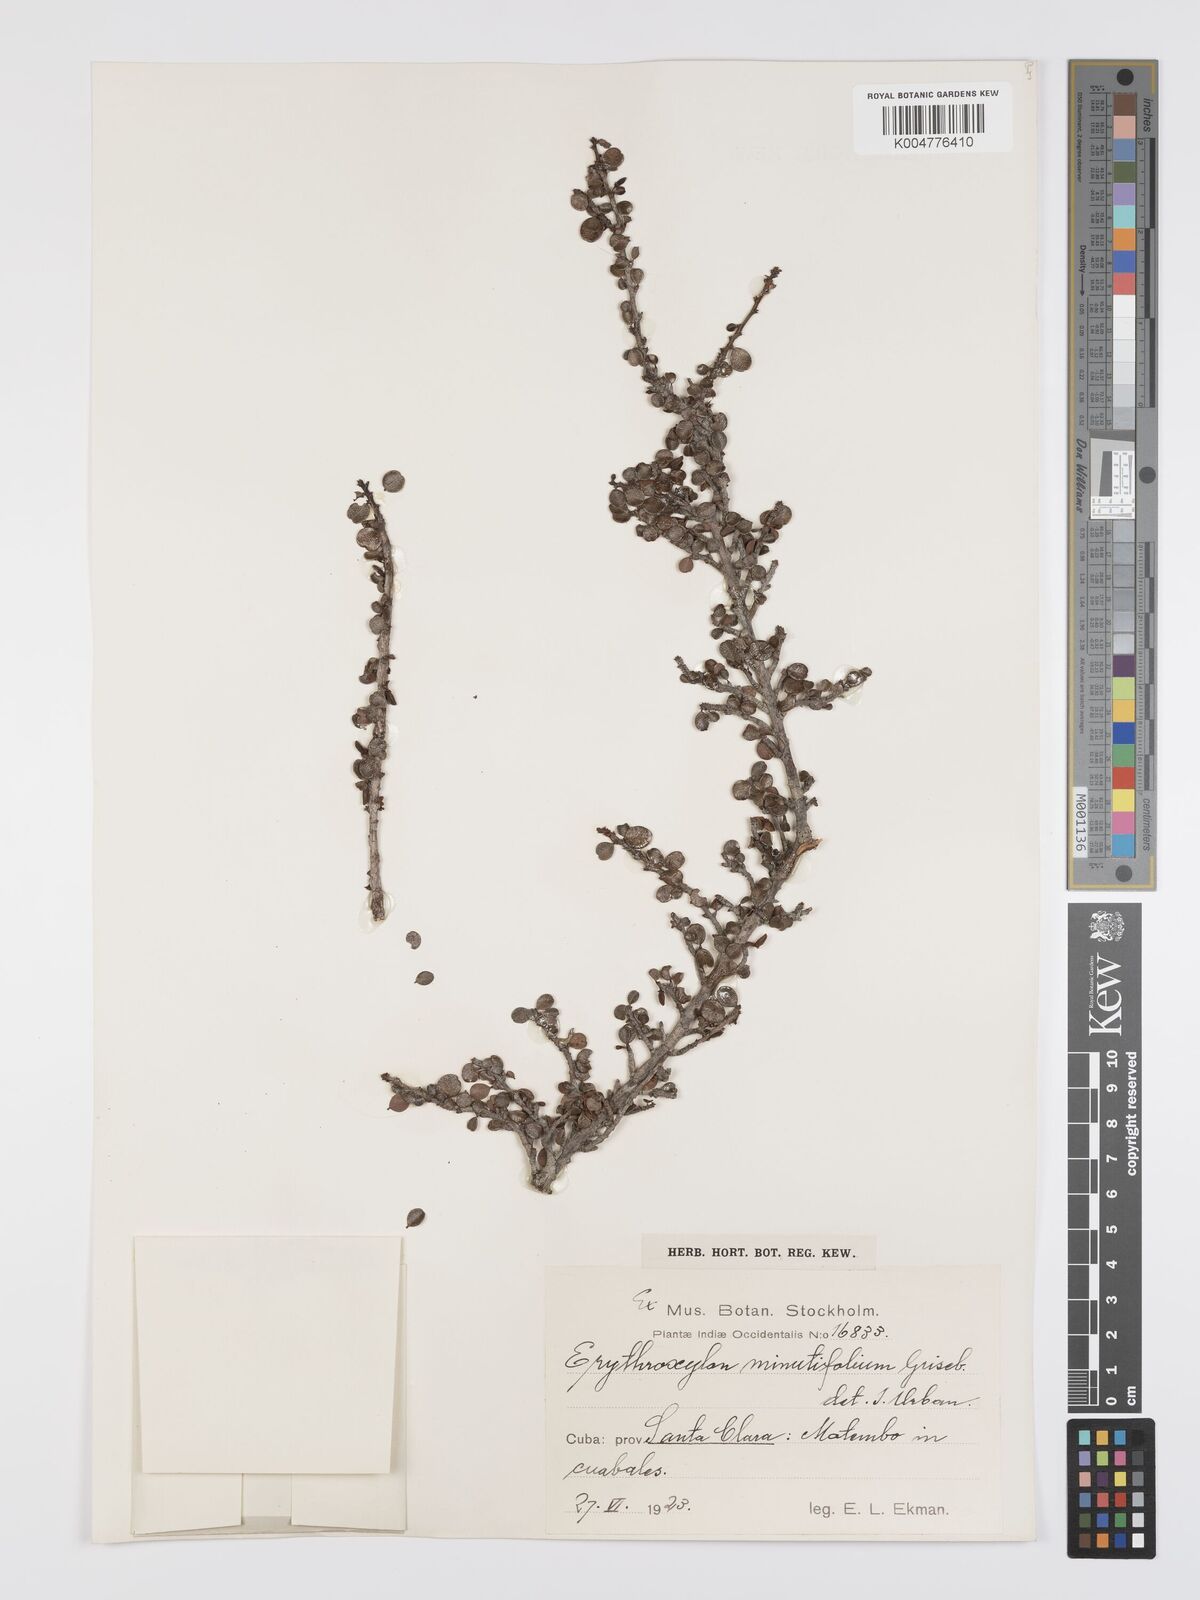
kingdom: Plantae
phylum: Tracheophyta
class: Magnoliopsida
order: Malpighiales
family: Erythroxylaceae
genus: Erythroxylum
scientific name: Erythroxylum minutifolium
